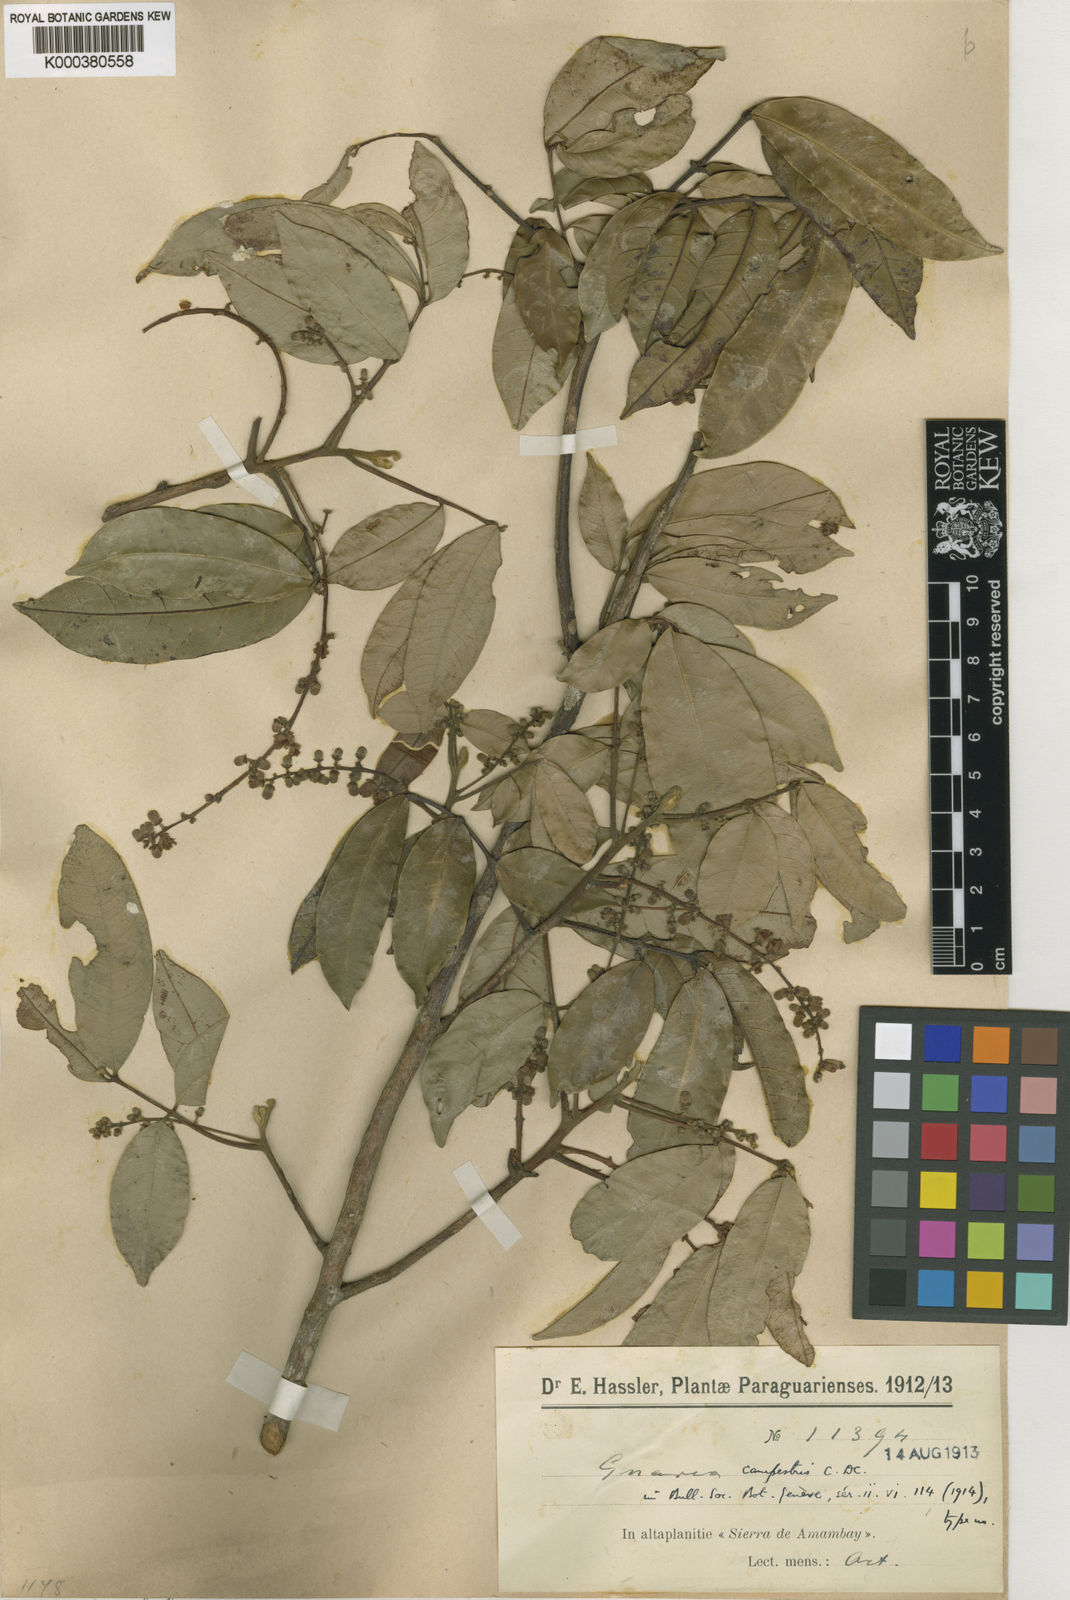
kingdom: Plantae
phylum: Tracheophyta
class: Magnoliopsida
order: Sapindales
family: Meliaceae
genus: Guarea
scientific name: Guarea guidonia
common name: American muskwood
